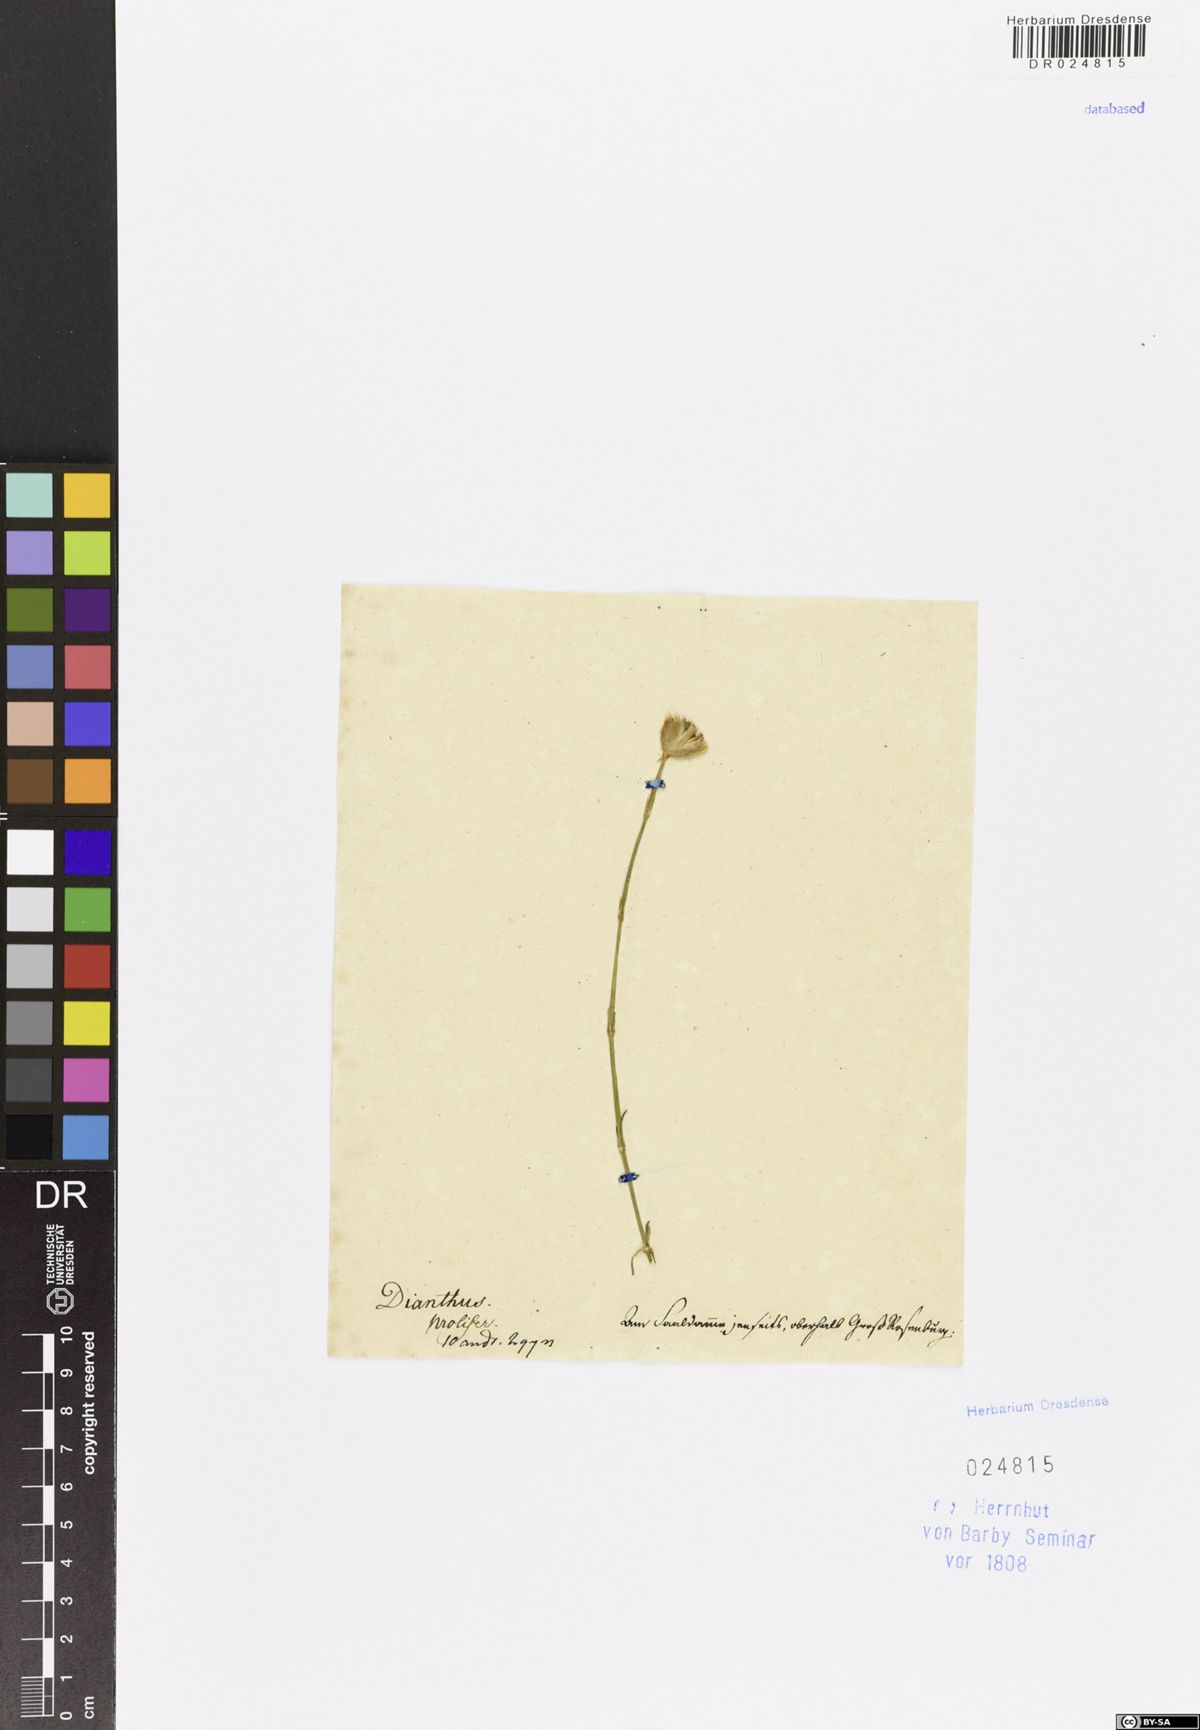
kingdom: Plantae
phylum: Tracheophyta
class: Magnoliopsida
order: Caryophyllales
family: Caryophyllaceae
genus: Petrorhagia
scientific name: Petrorhagia prolifera
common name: Proliferous pink
